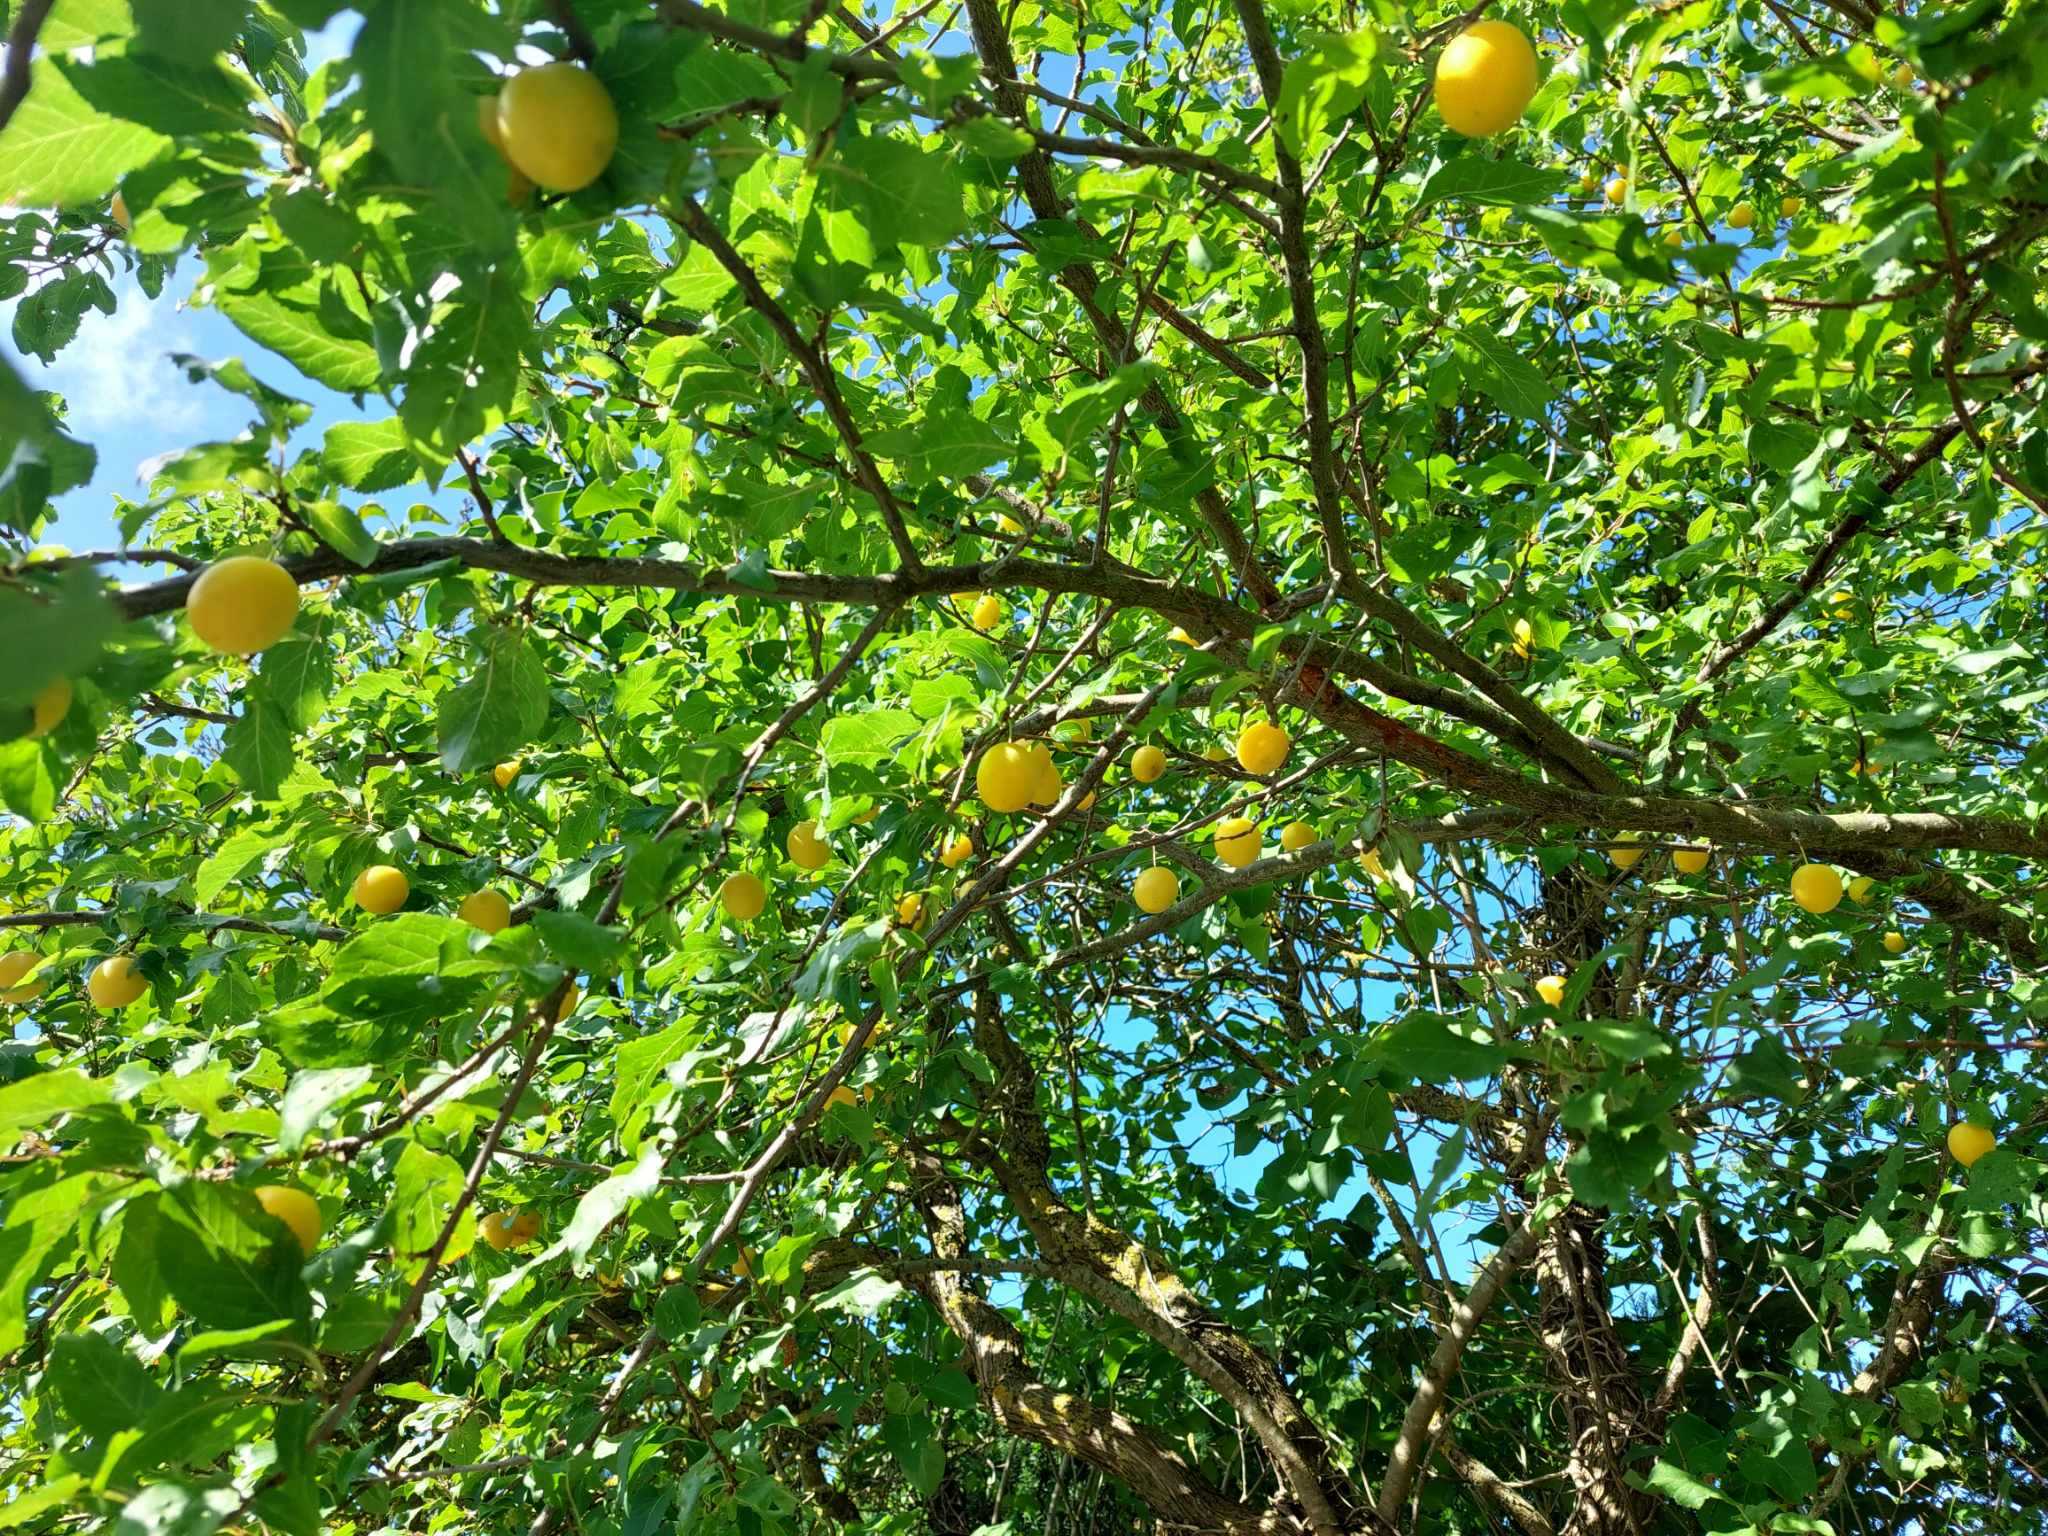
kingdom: Plantae
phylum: Tracheophyta
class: Magnoliopsida
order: Rosales
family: Rosaceae
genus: Prunus
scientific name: Prunus cerasifera
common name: Mirabel
